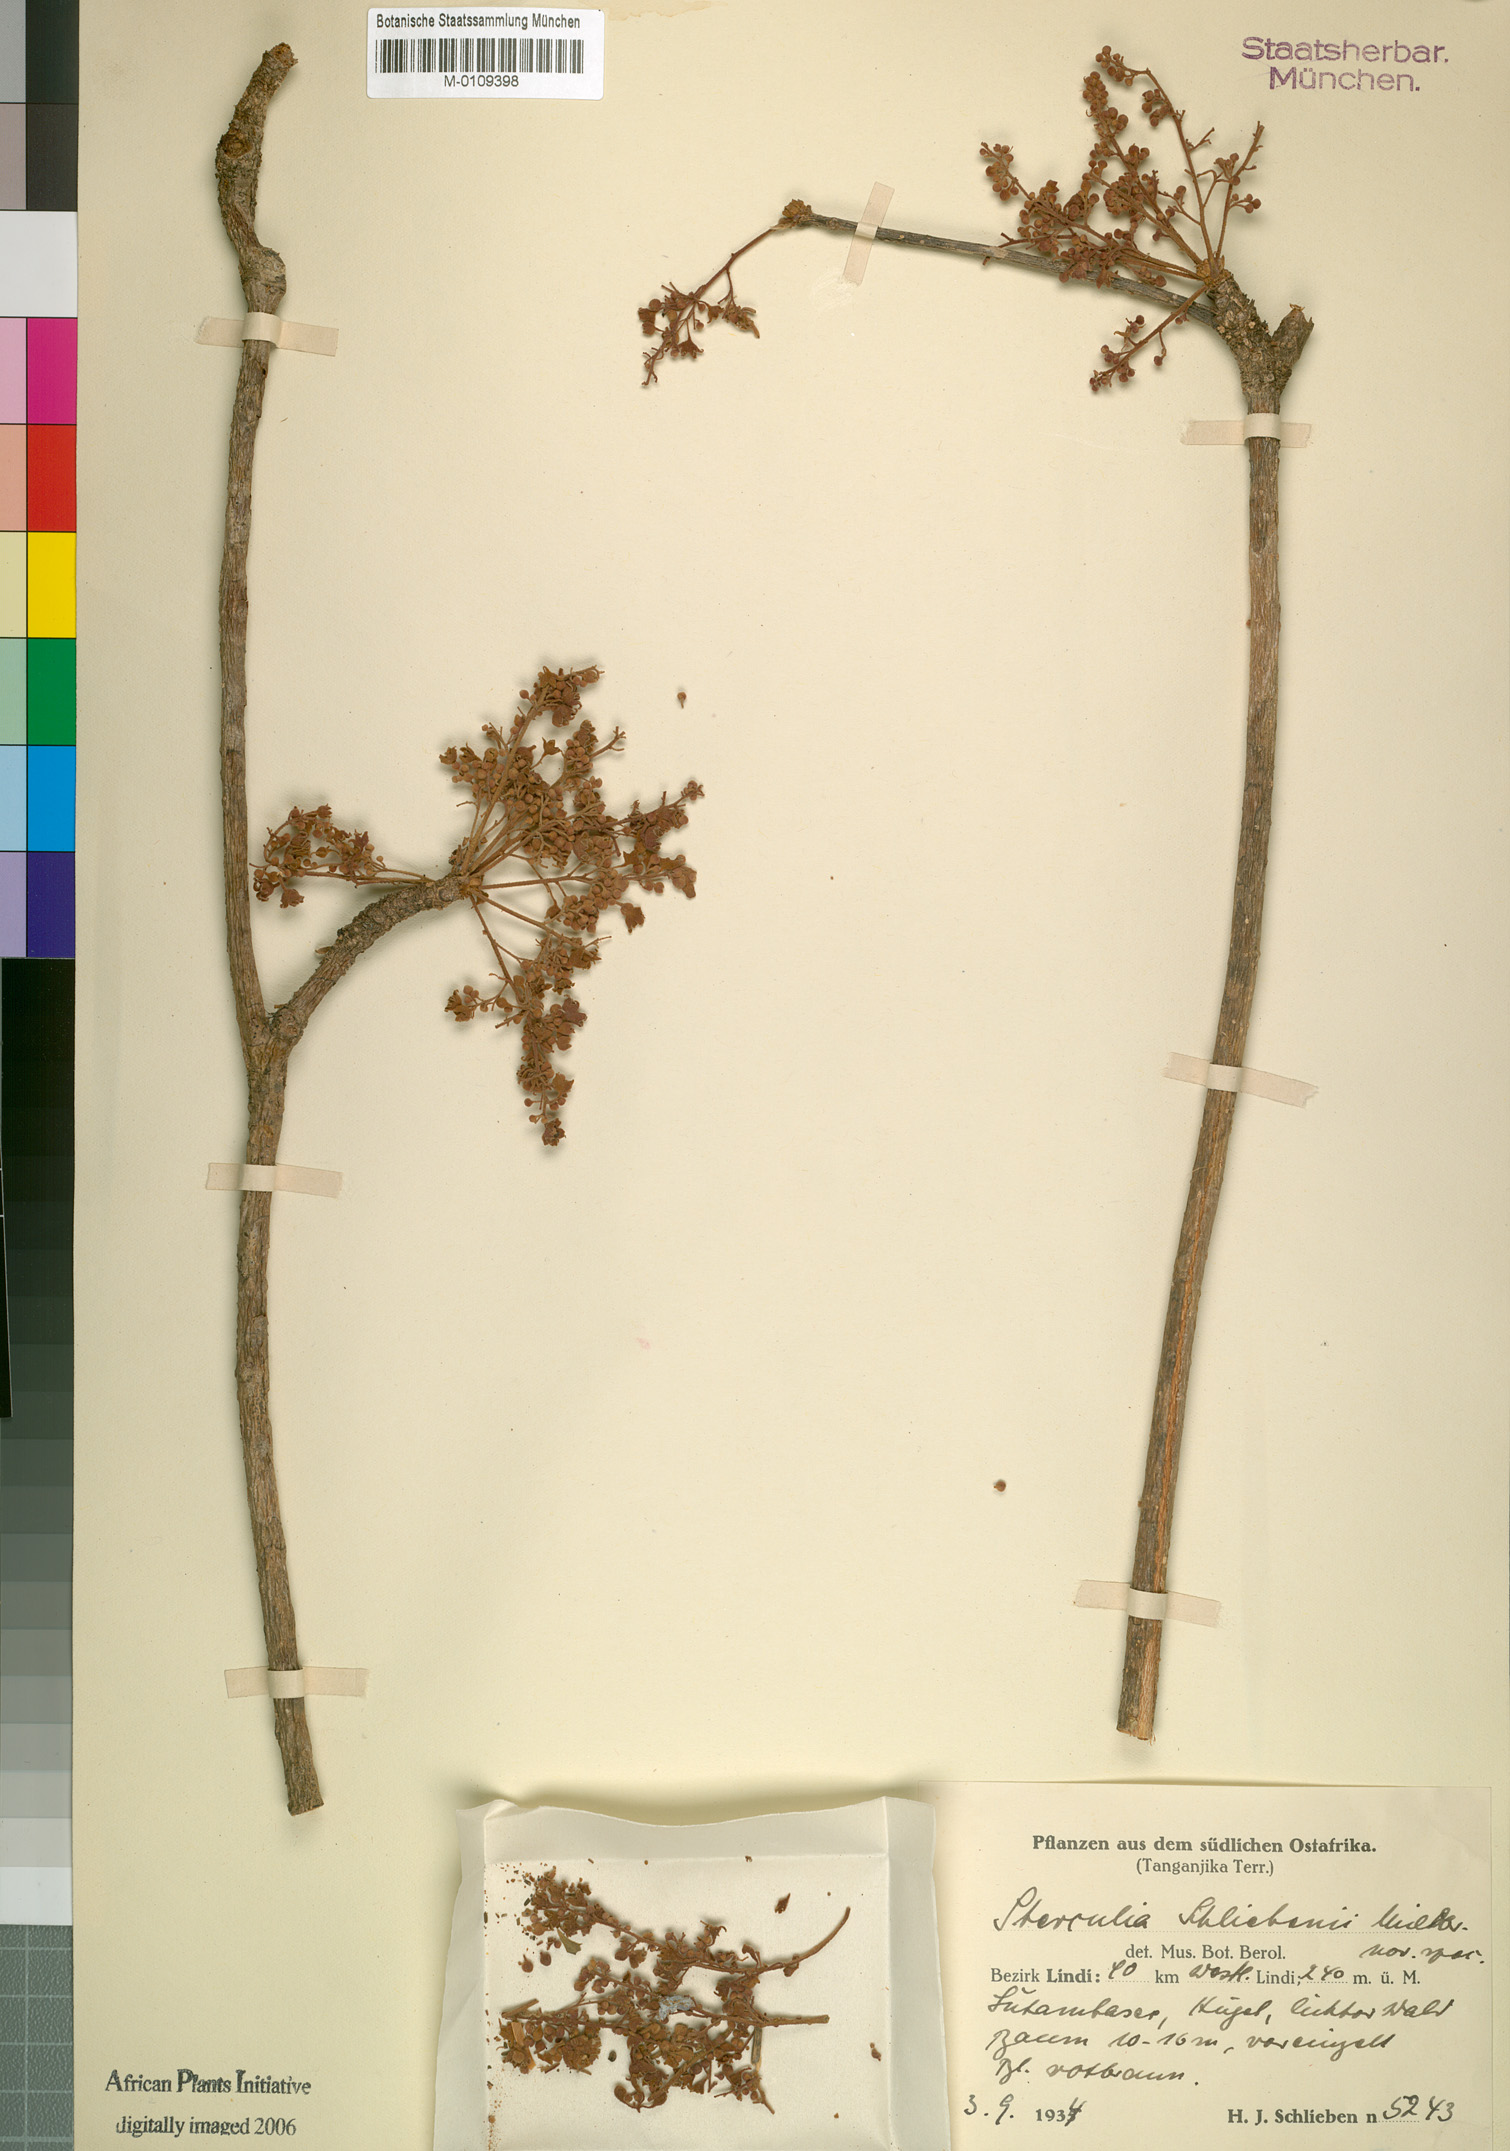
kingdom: Plantae
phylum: Tracheophyta
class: Magnoliopsida
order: Malvales
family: Malvaceae
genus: Sterculia
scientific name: Sterculia schliebenii
